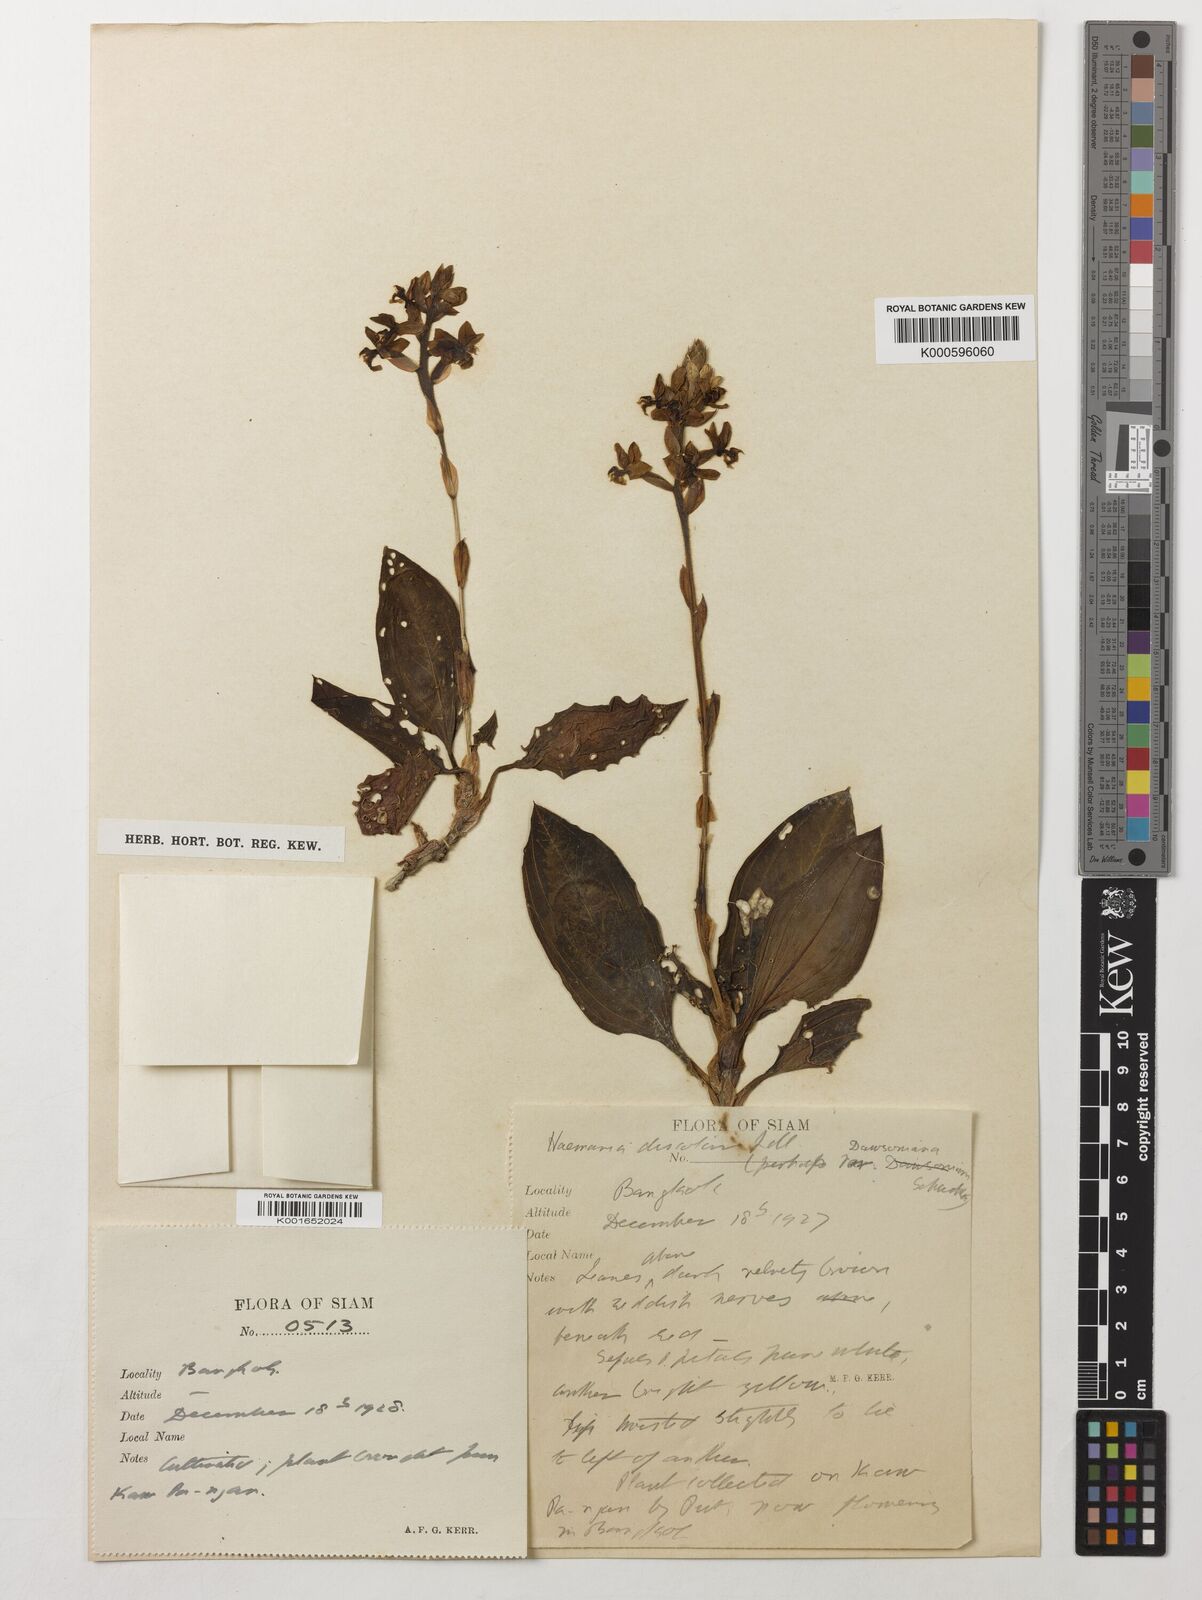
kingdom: Plantae
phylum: Tracheophyta
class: Liliopsida
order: Asparagales
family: Orchidaceae
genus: Ludisia
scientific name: Ludisia
